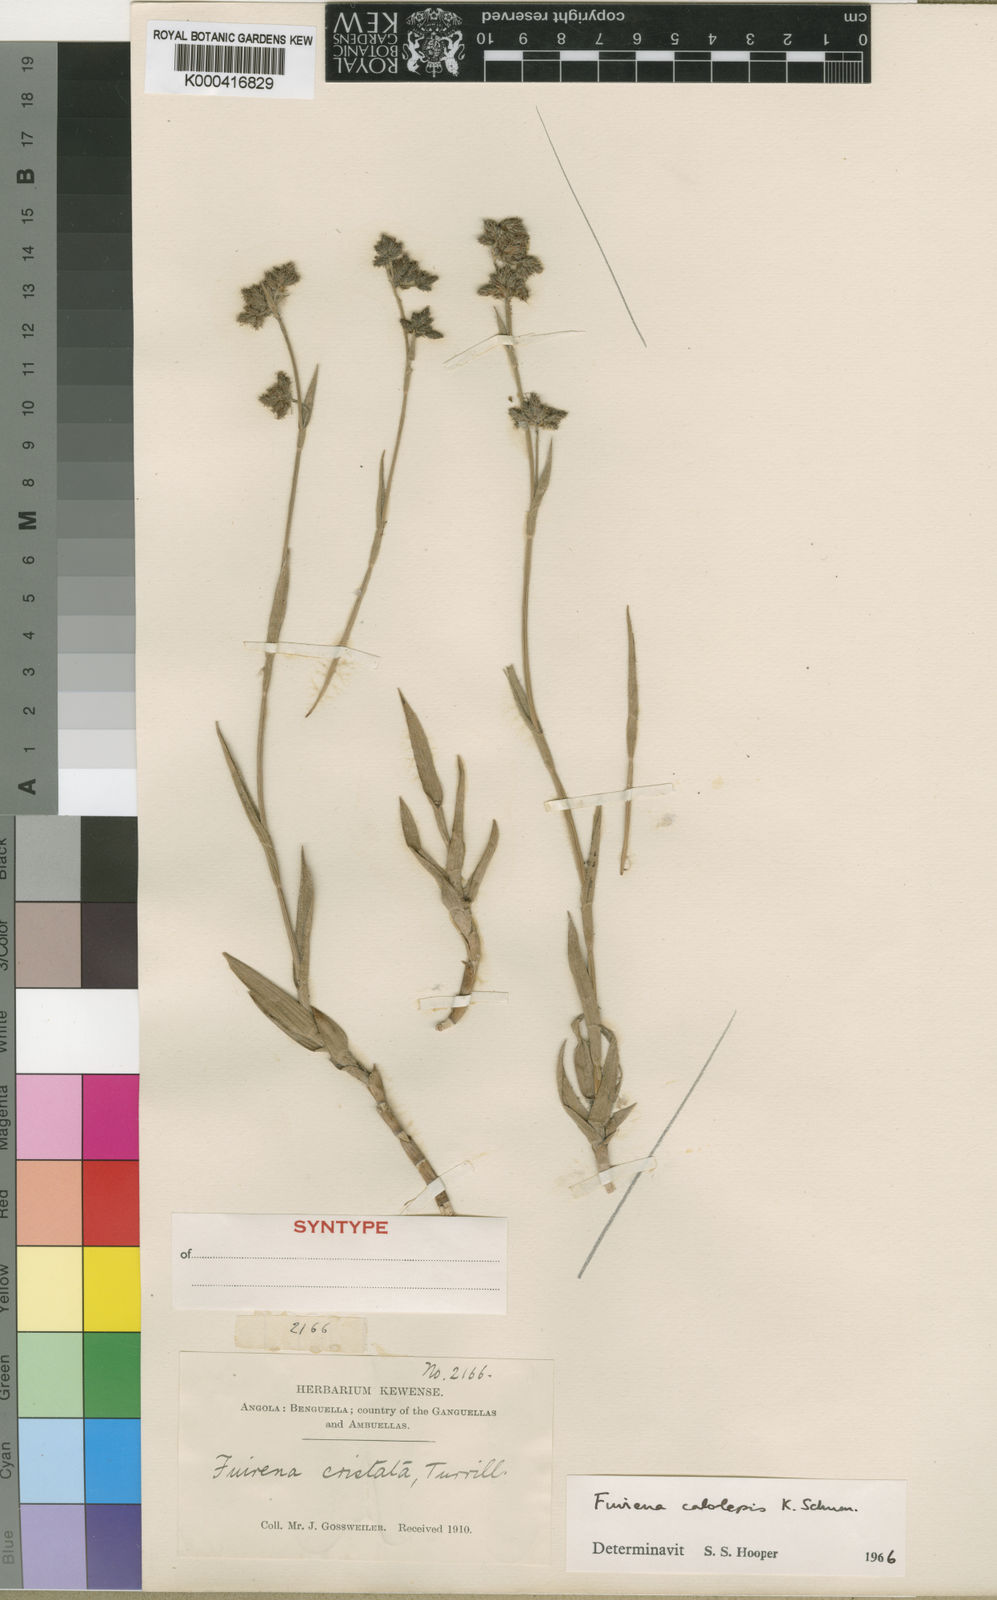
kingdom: Plantae
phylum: Tracheophyta
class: Liliopsida
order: Poales
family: Cyperaceae
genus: Fuirena
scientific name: Fuirena ochreata
